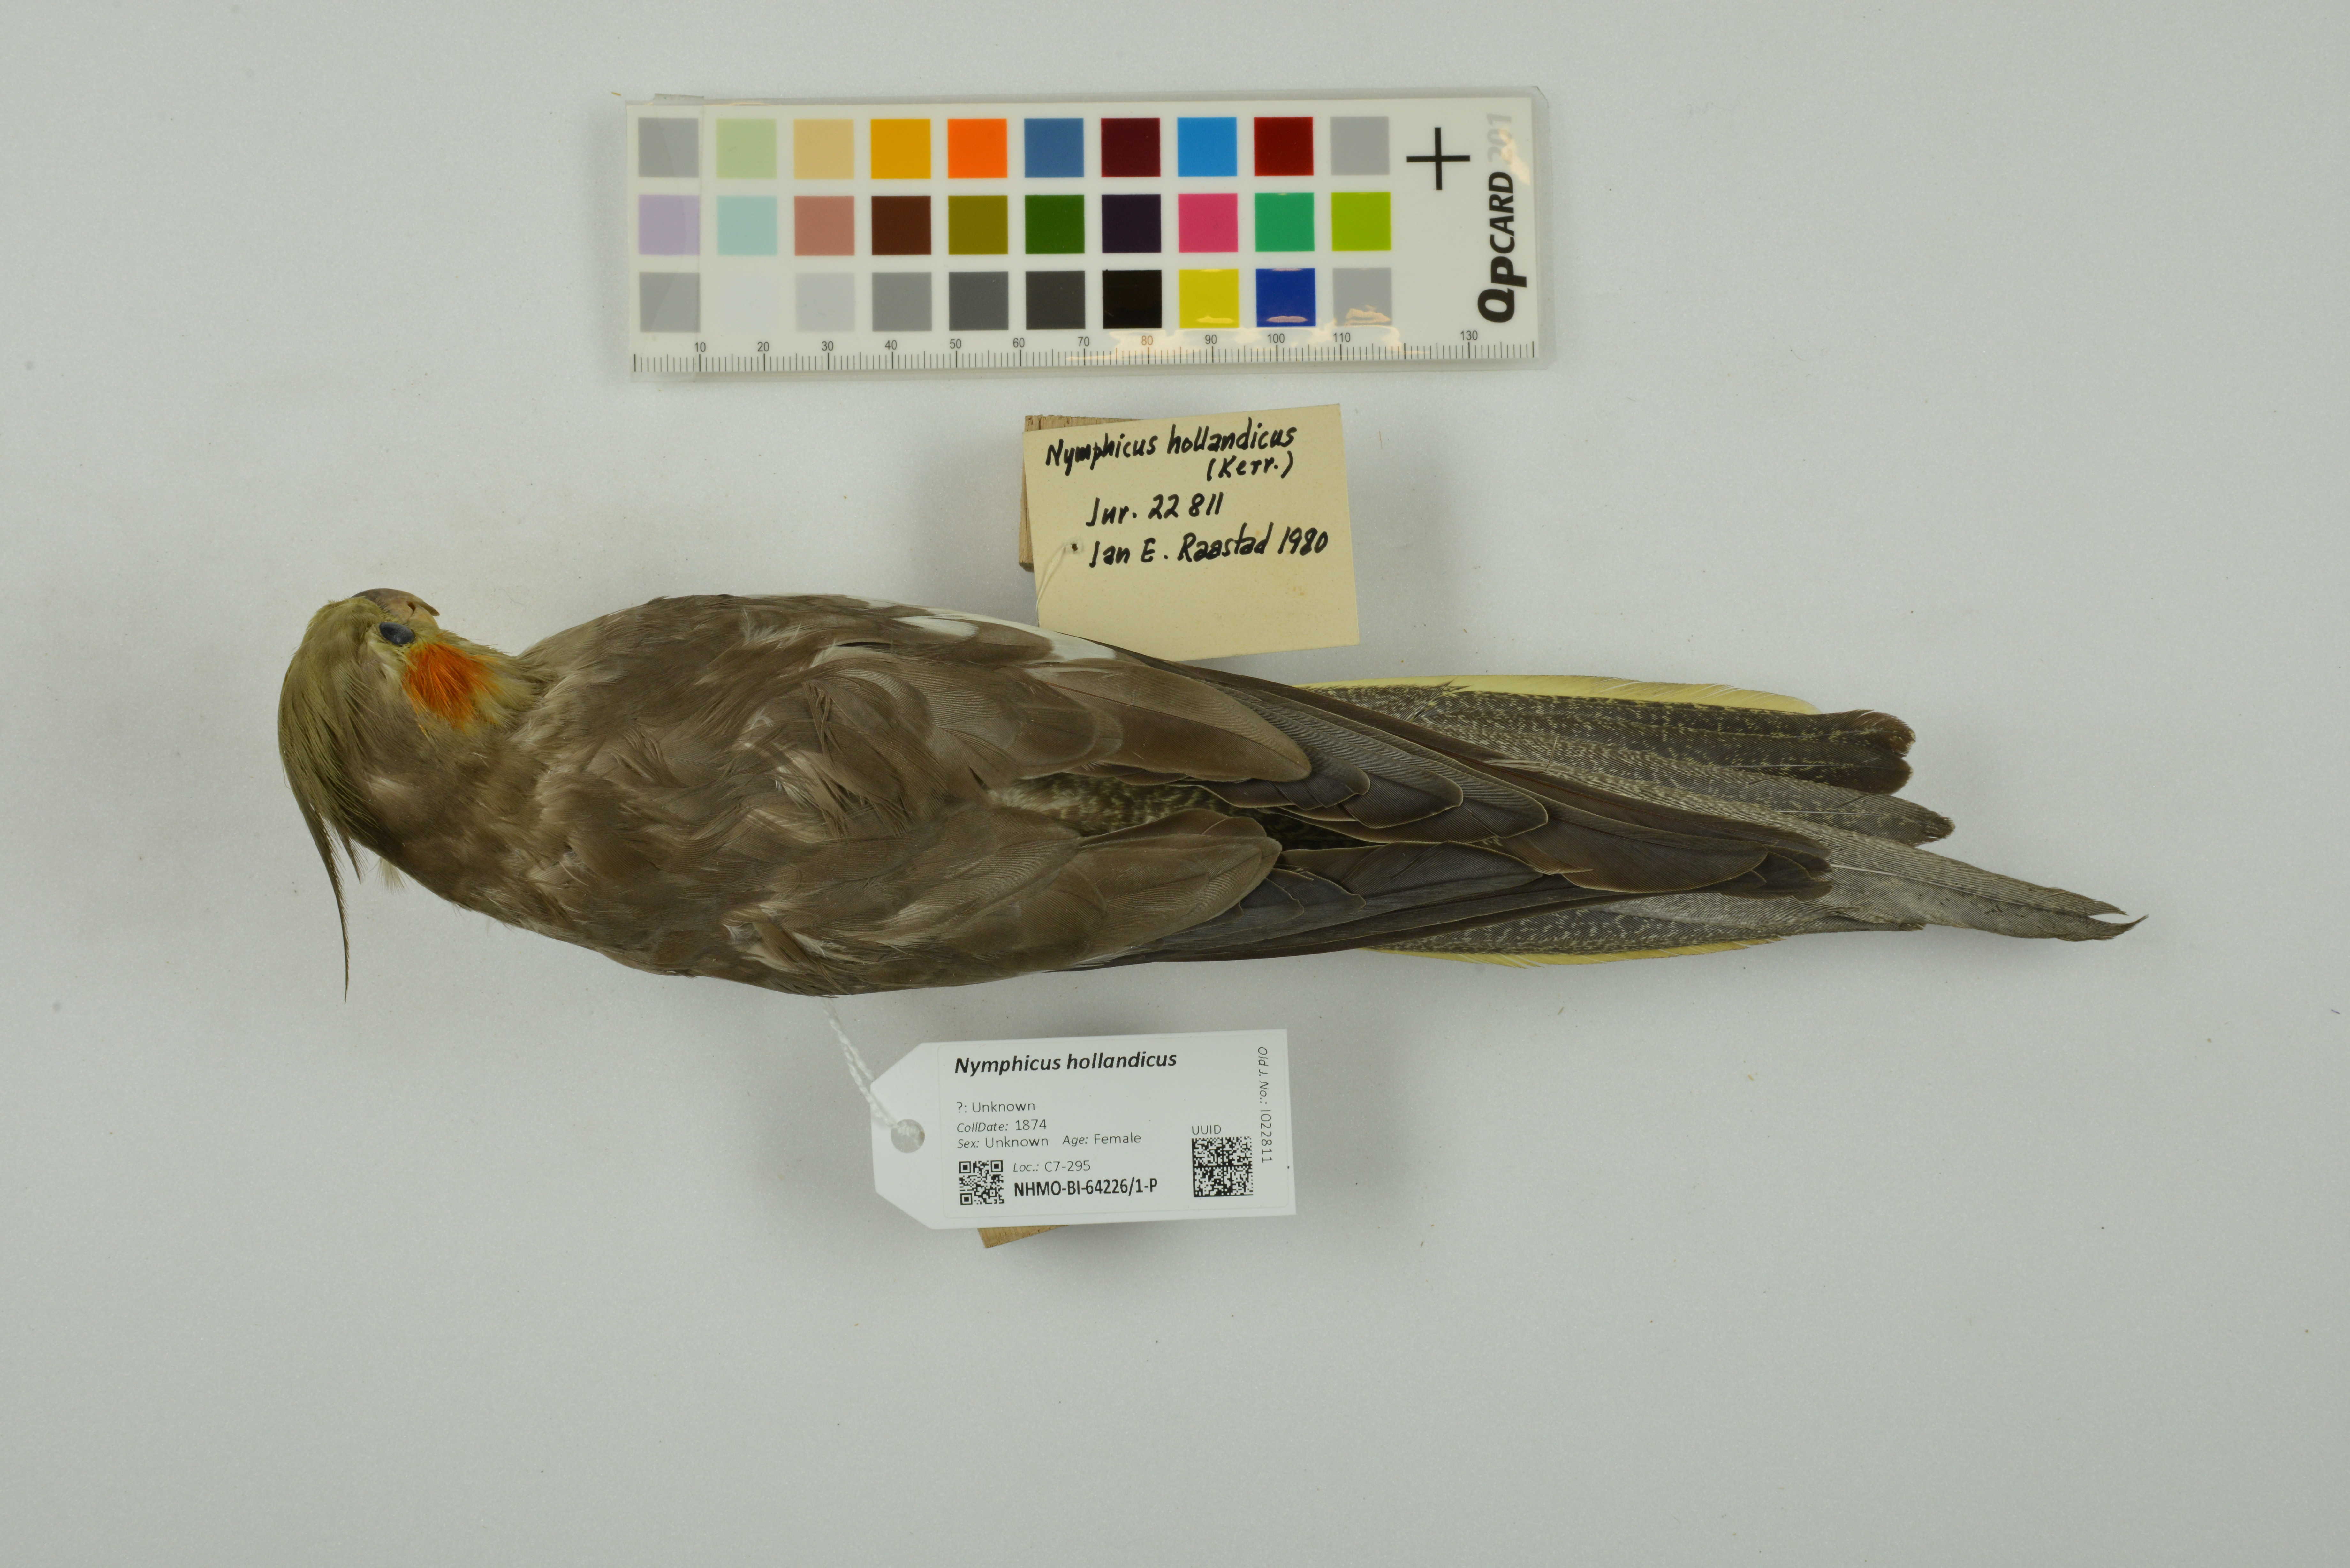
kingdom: Animalia
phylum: Chordata
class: Aves
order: Psittaciformes
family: Psittacidae
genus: Nymphicus
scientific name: Nymphicus hollandicus
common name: Cockatiel
